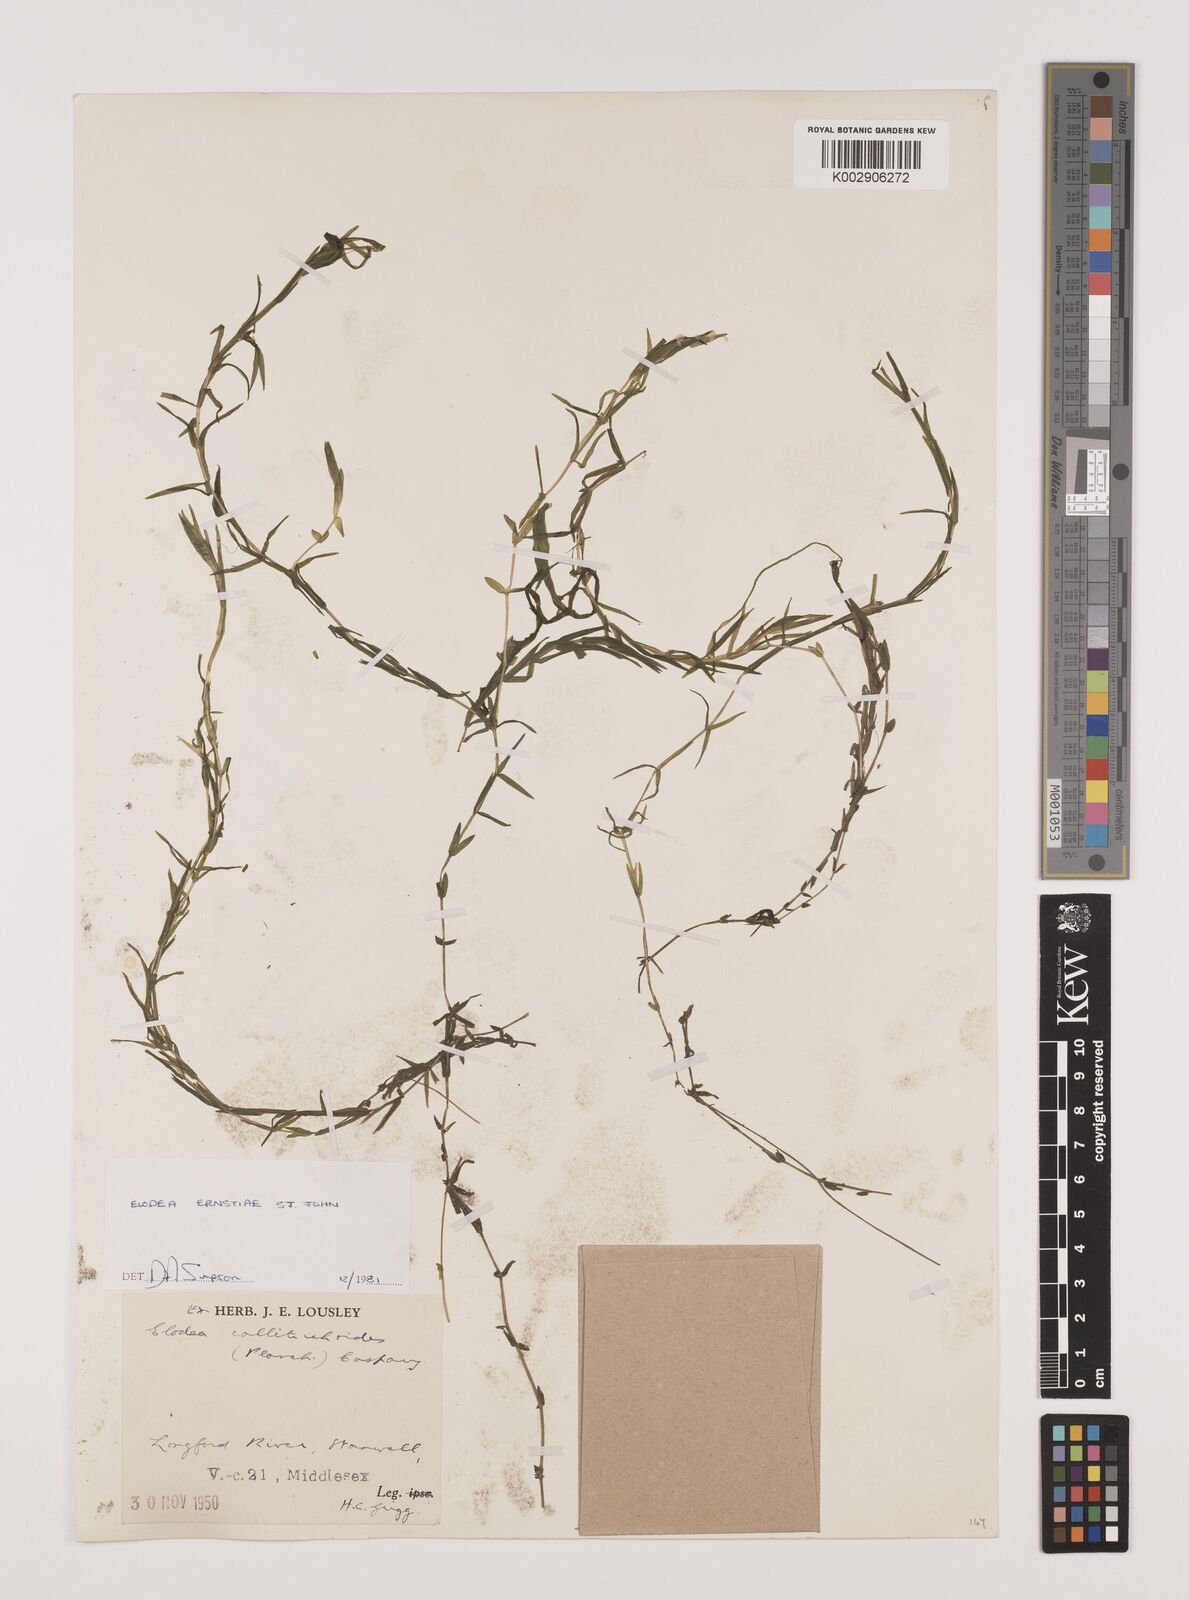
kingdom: Plantae
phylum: Tracheophyta
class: Liliopsida
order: Alismatales
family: Hydrocharitaceae
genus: Elodea
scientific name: Elodea callitrichoides
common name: South american waterweed
